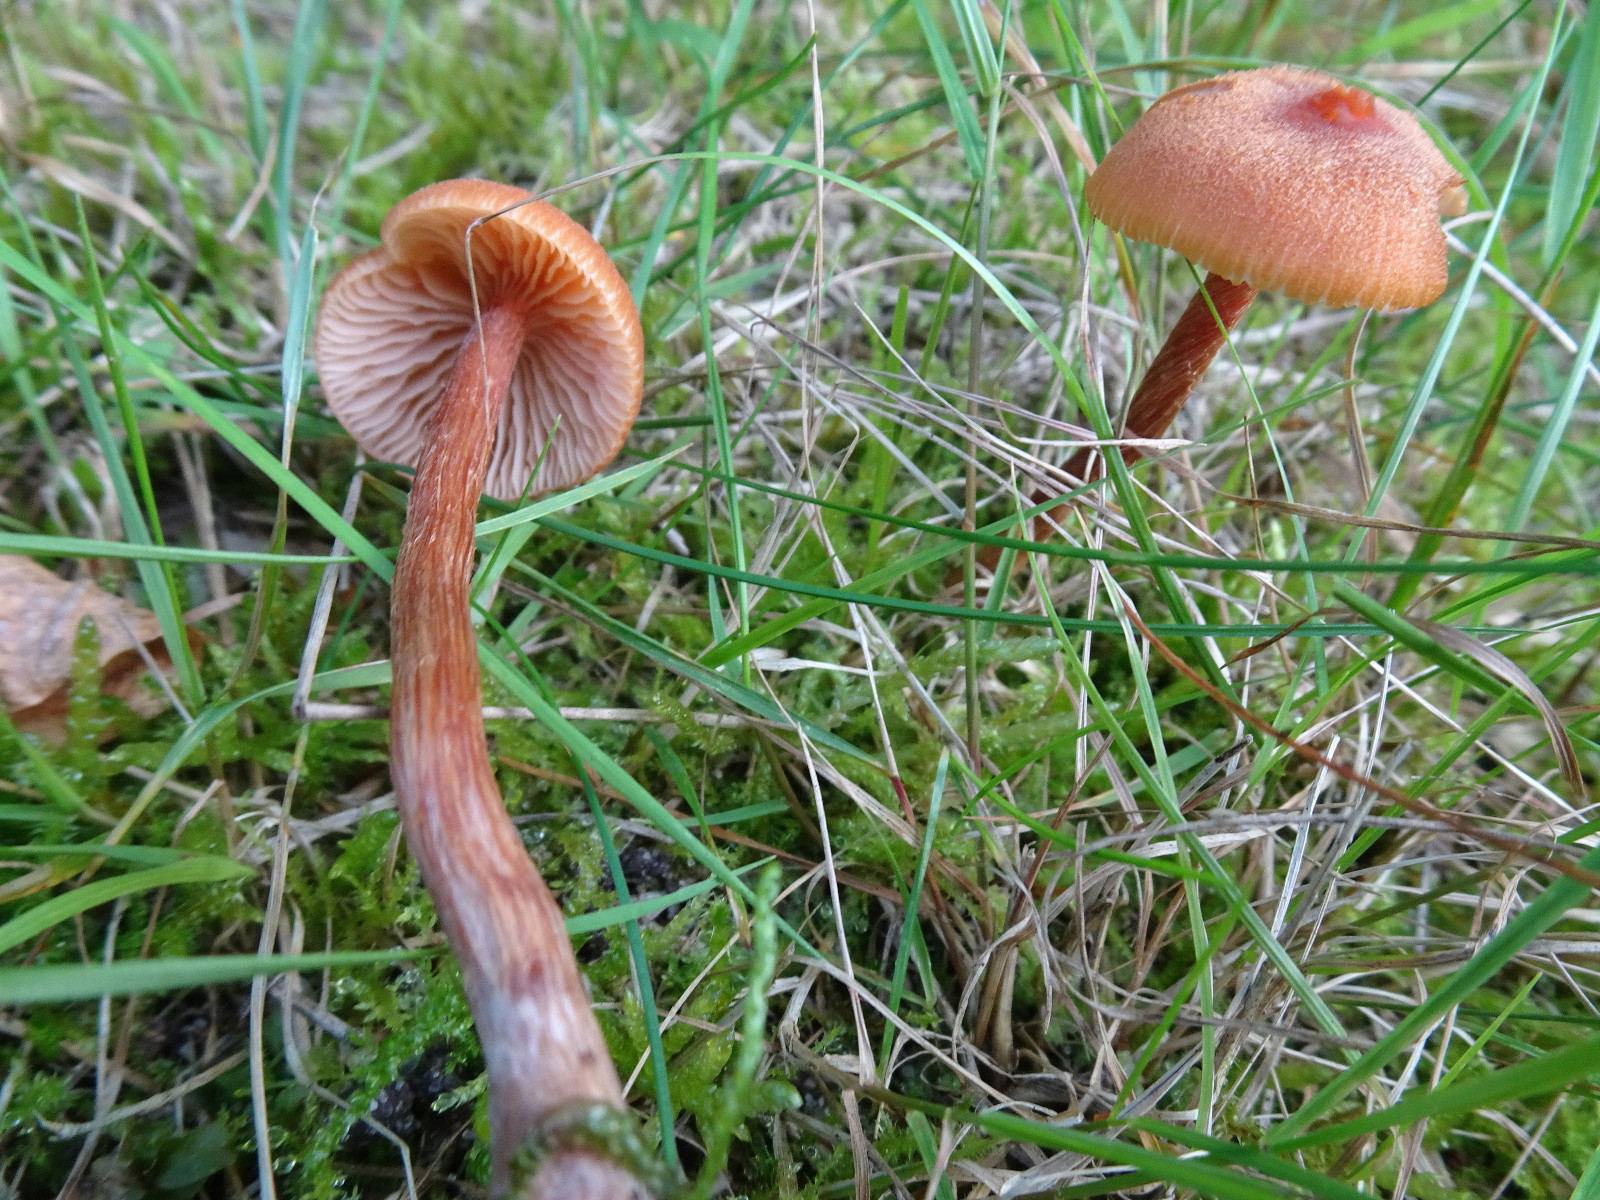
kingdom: Fungi
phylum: Basidiomycota
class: Agaricomycetes
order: Agaricales
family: Hydnangiaceae
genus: Laccaria
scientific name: Laccaria proxima
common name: stor ametysthat
